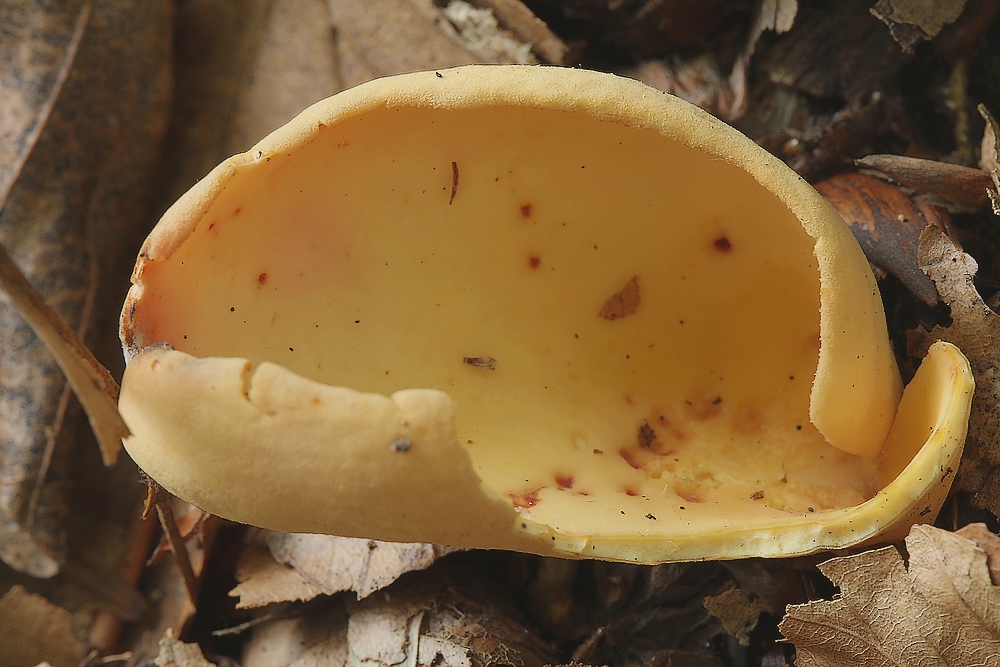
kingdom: Fungi
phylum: Ascomycota
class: Pezizomycetes
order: Pezizales
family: Otideaceae
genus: Otidea
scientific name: Otidea onotica
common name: æsel-ørebæger
